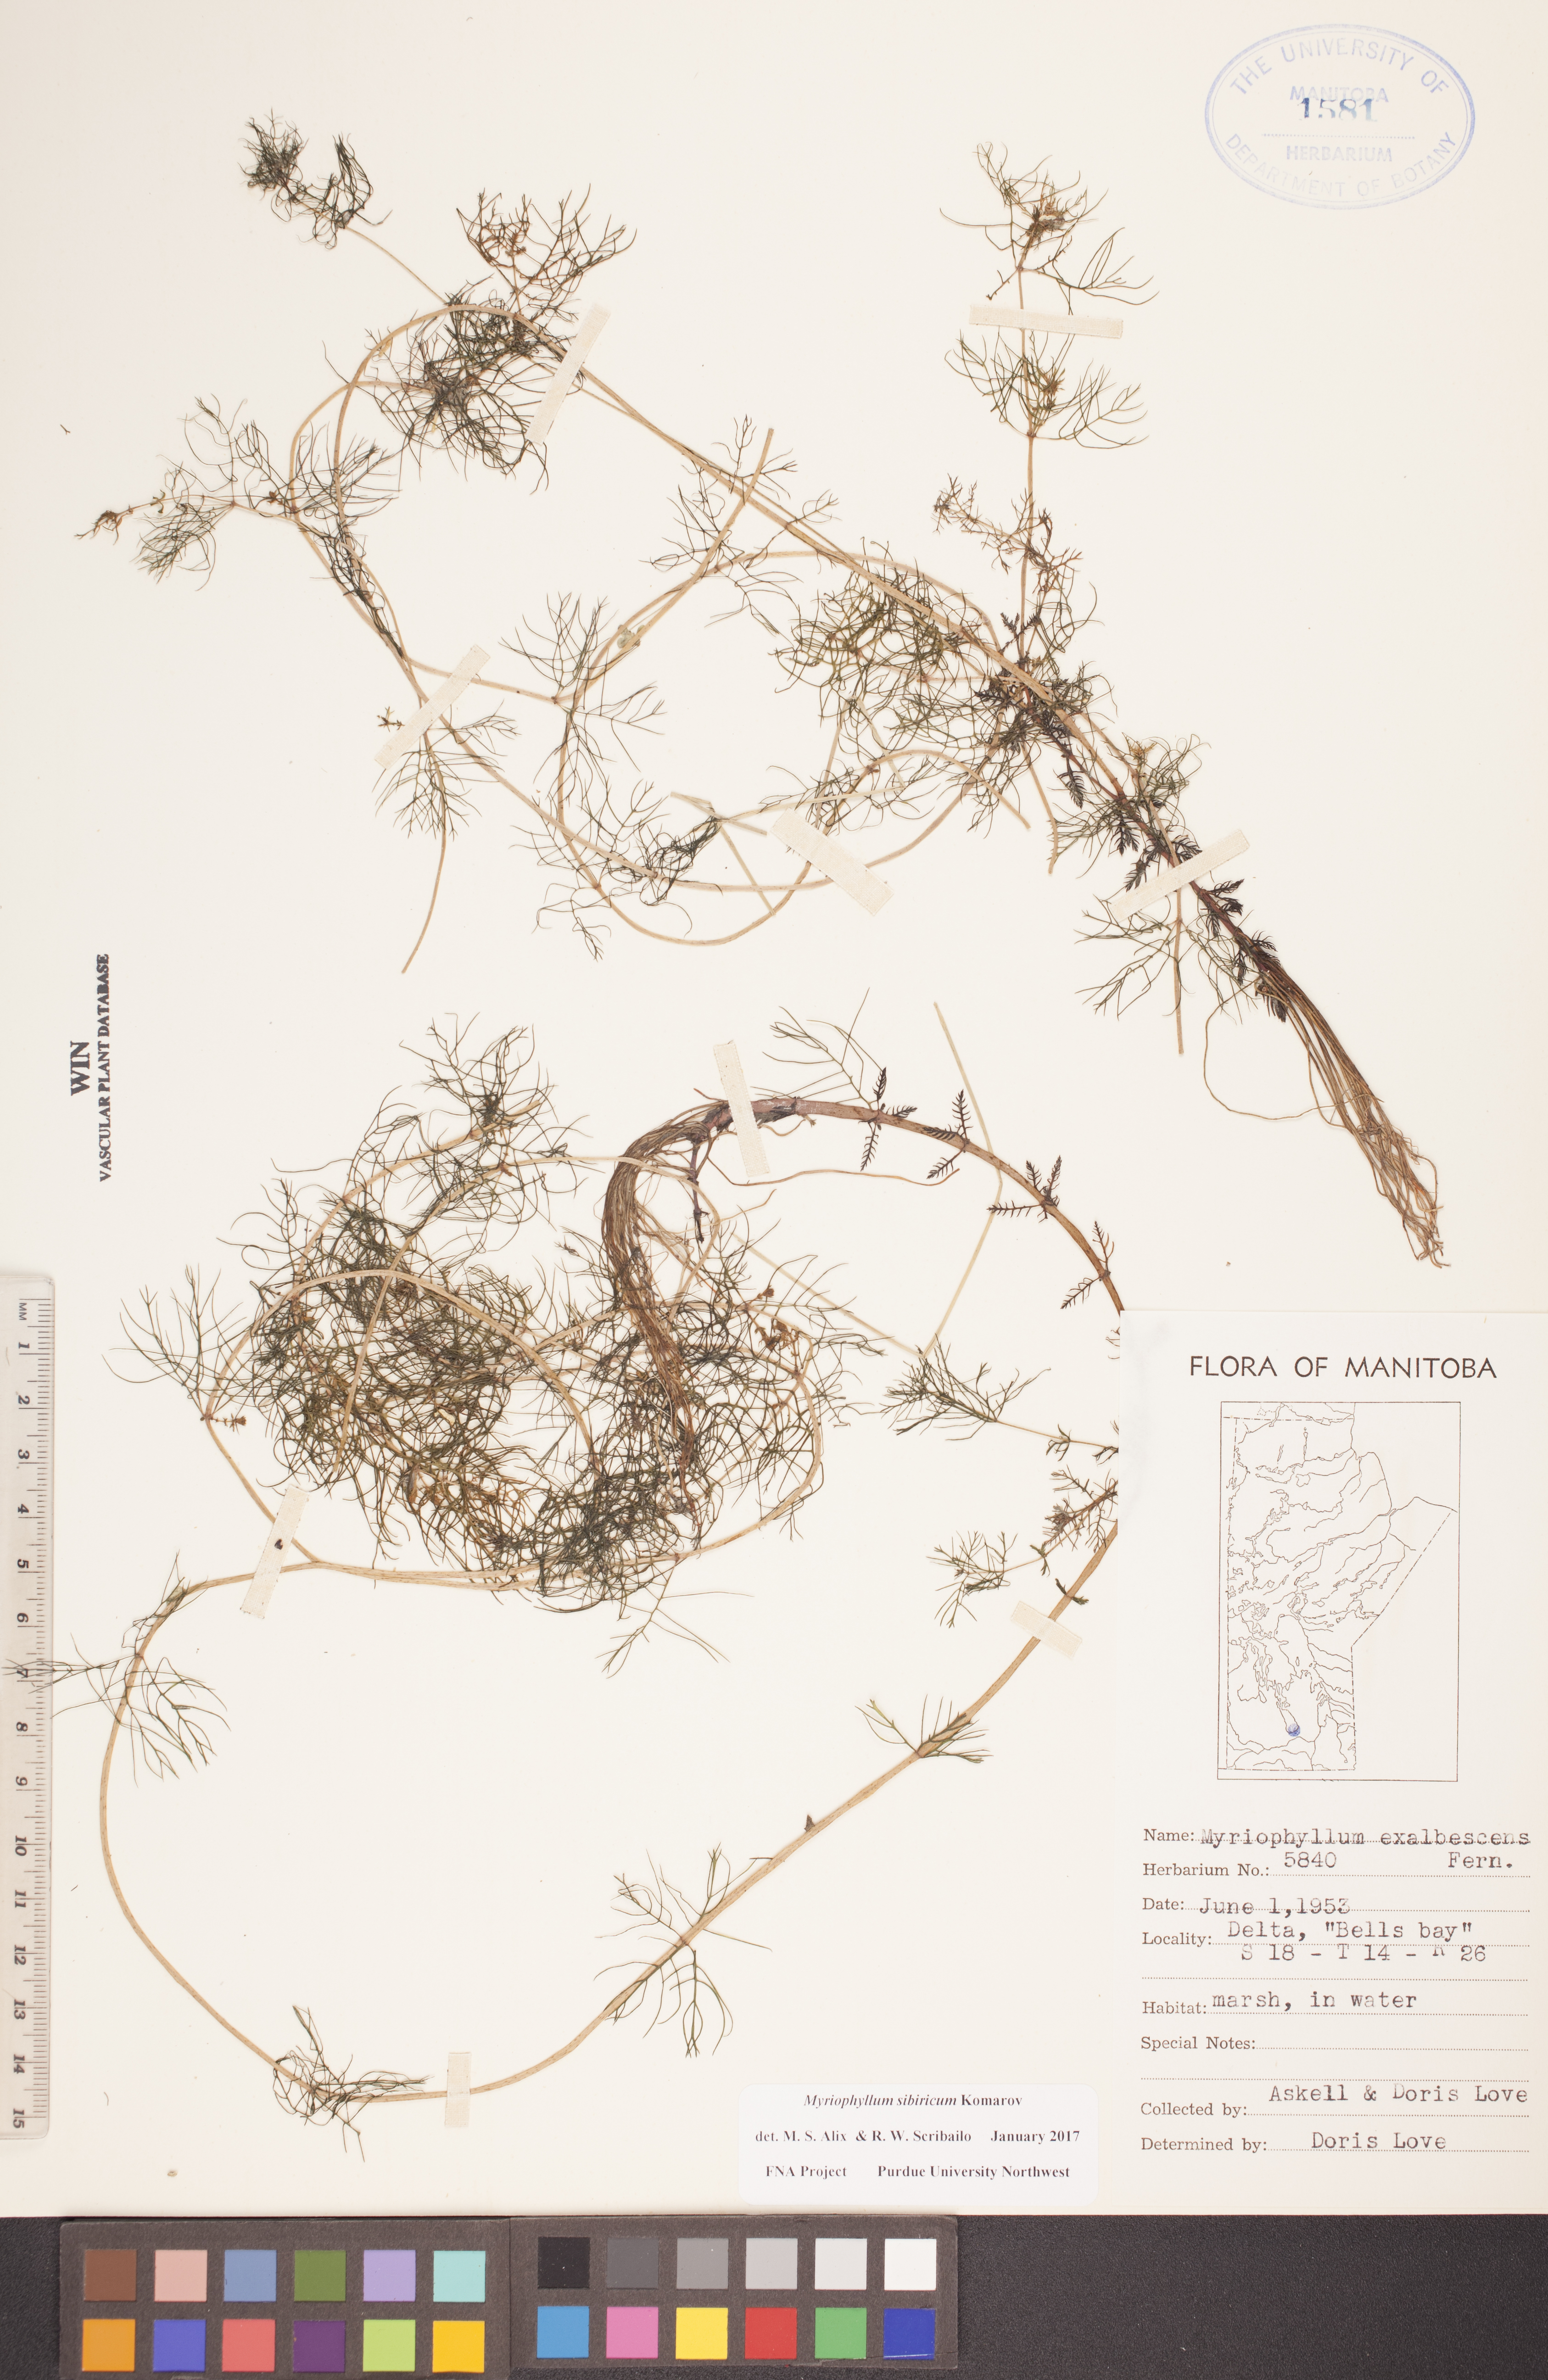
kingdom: Plantae
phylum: Tracheophyta
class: Magnoliopsida
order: Saxifragales
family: Haloragaceae
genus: Myriophyllum
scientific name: Myriophyllum sibiricum
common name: Siberian water-milfoil
